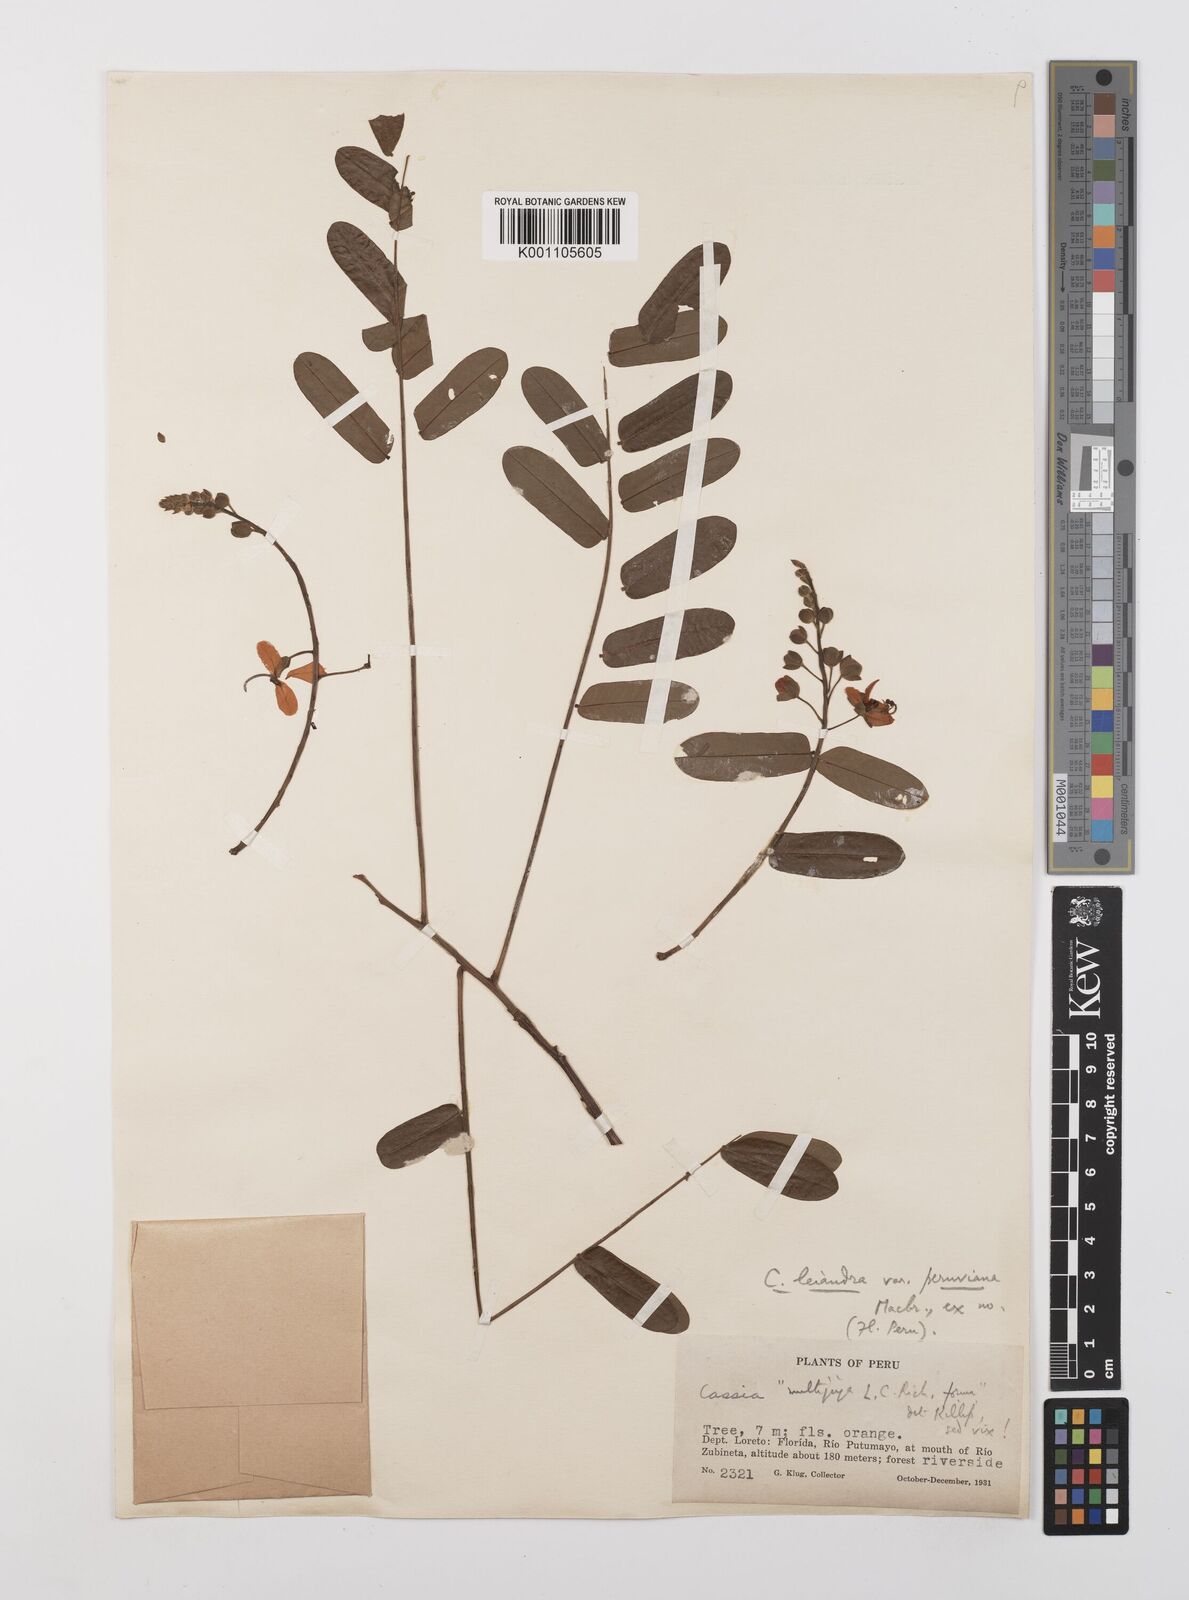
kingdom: Plantae
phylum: Tracheophyta
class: Magnoliopsida
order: Fabales
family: Fabaceae
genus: Cassia
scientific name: Cassia cowanii
